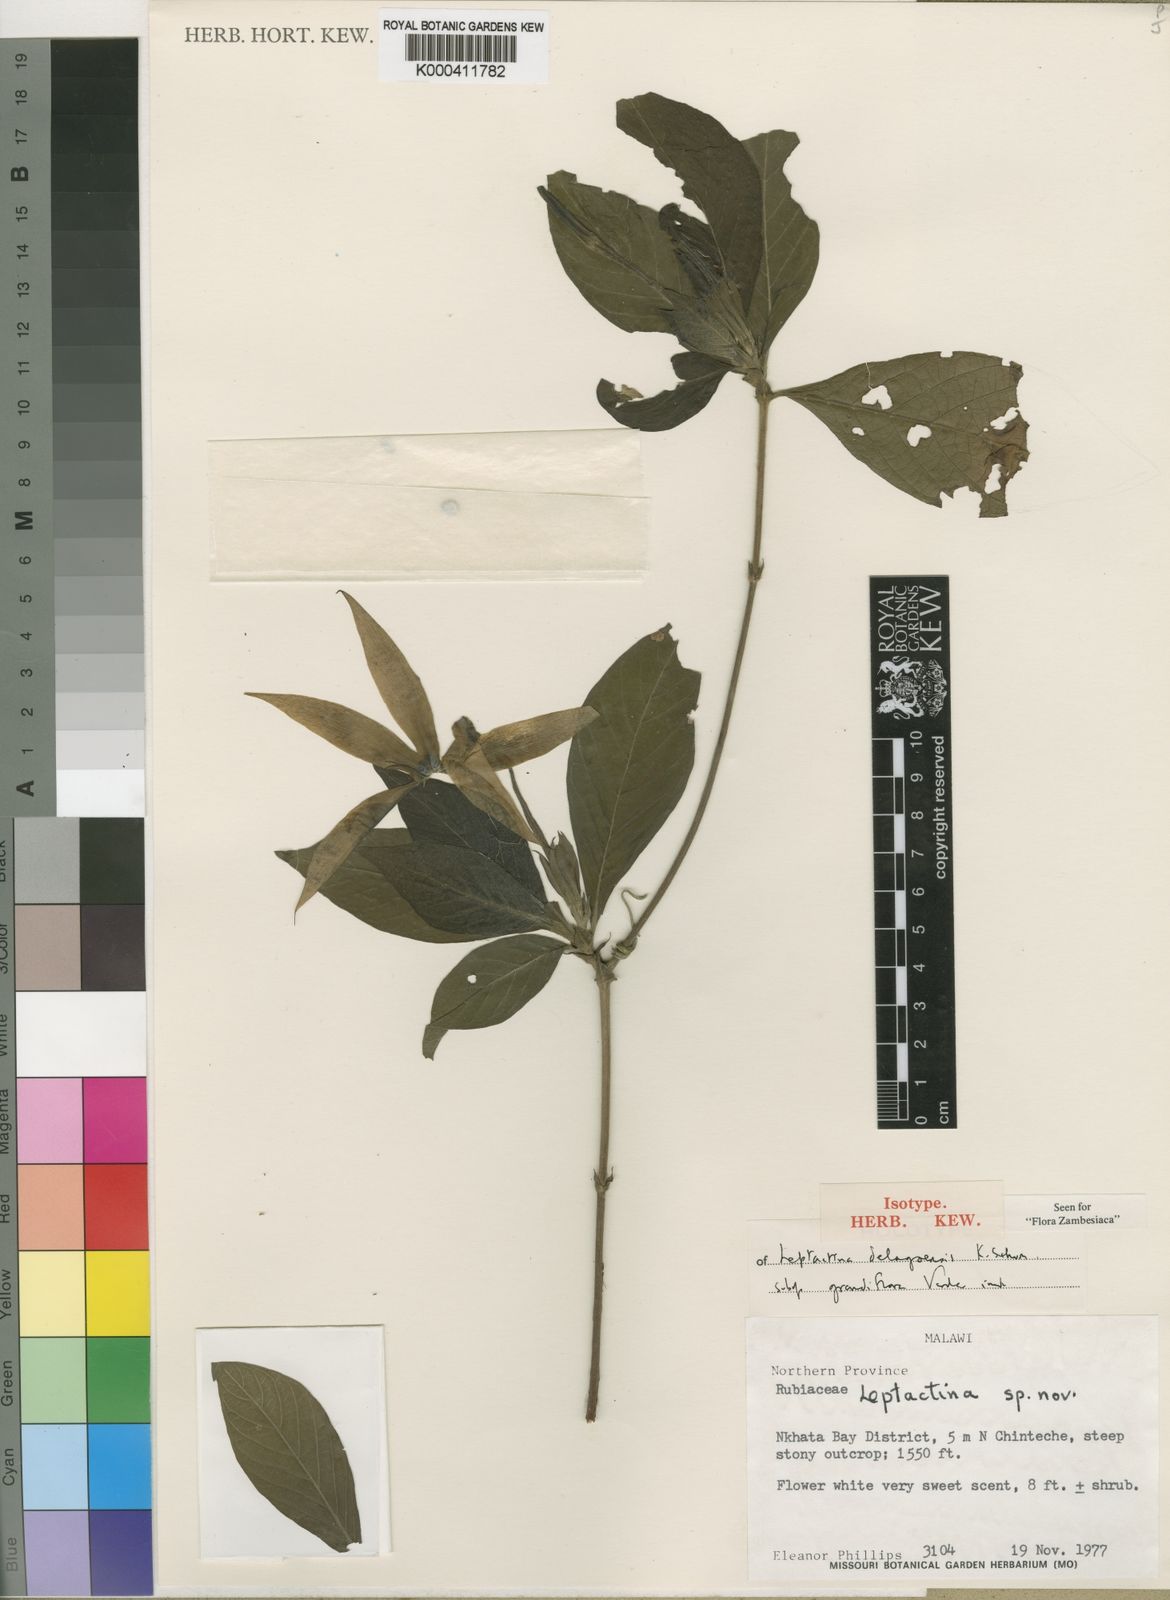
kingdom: Plantae
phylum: Tracheophyta
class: Magnoliopsida
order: Gentianales
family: Rubiaceae
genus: Leptactina
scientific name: Leptactina delagoensis
